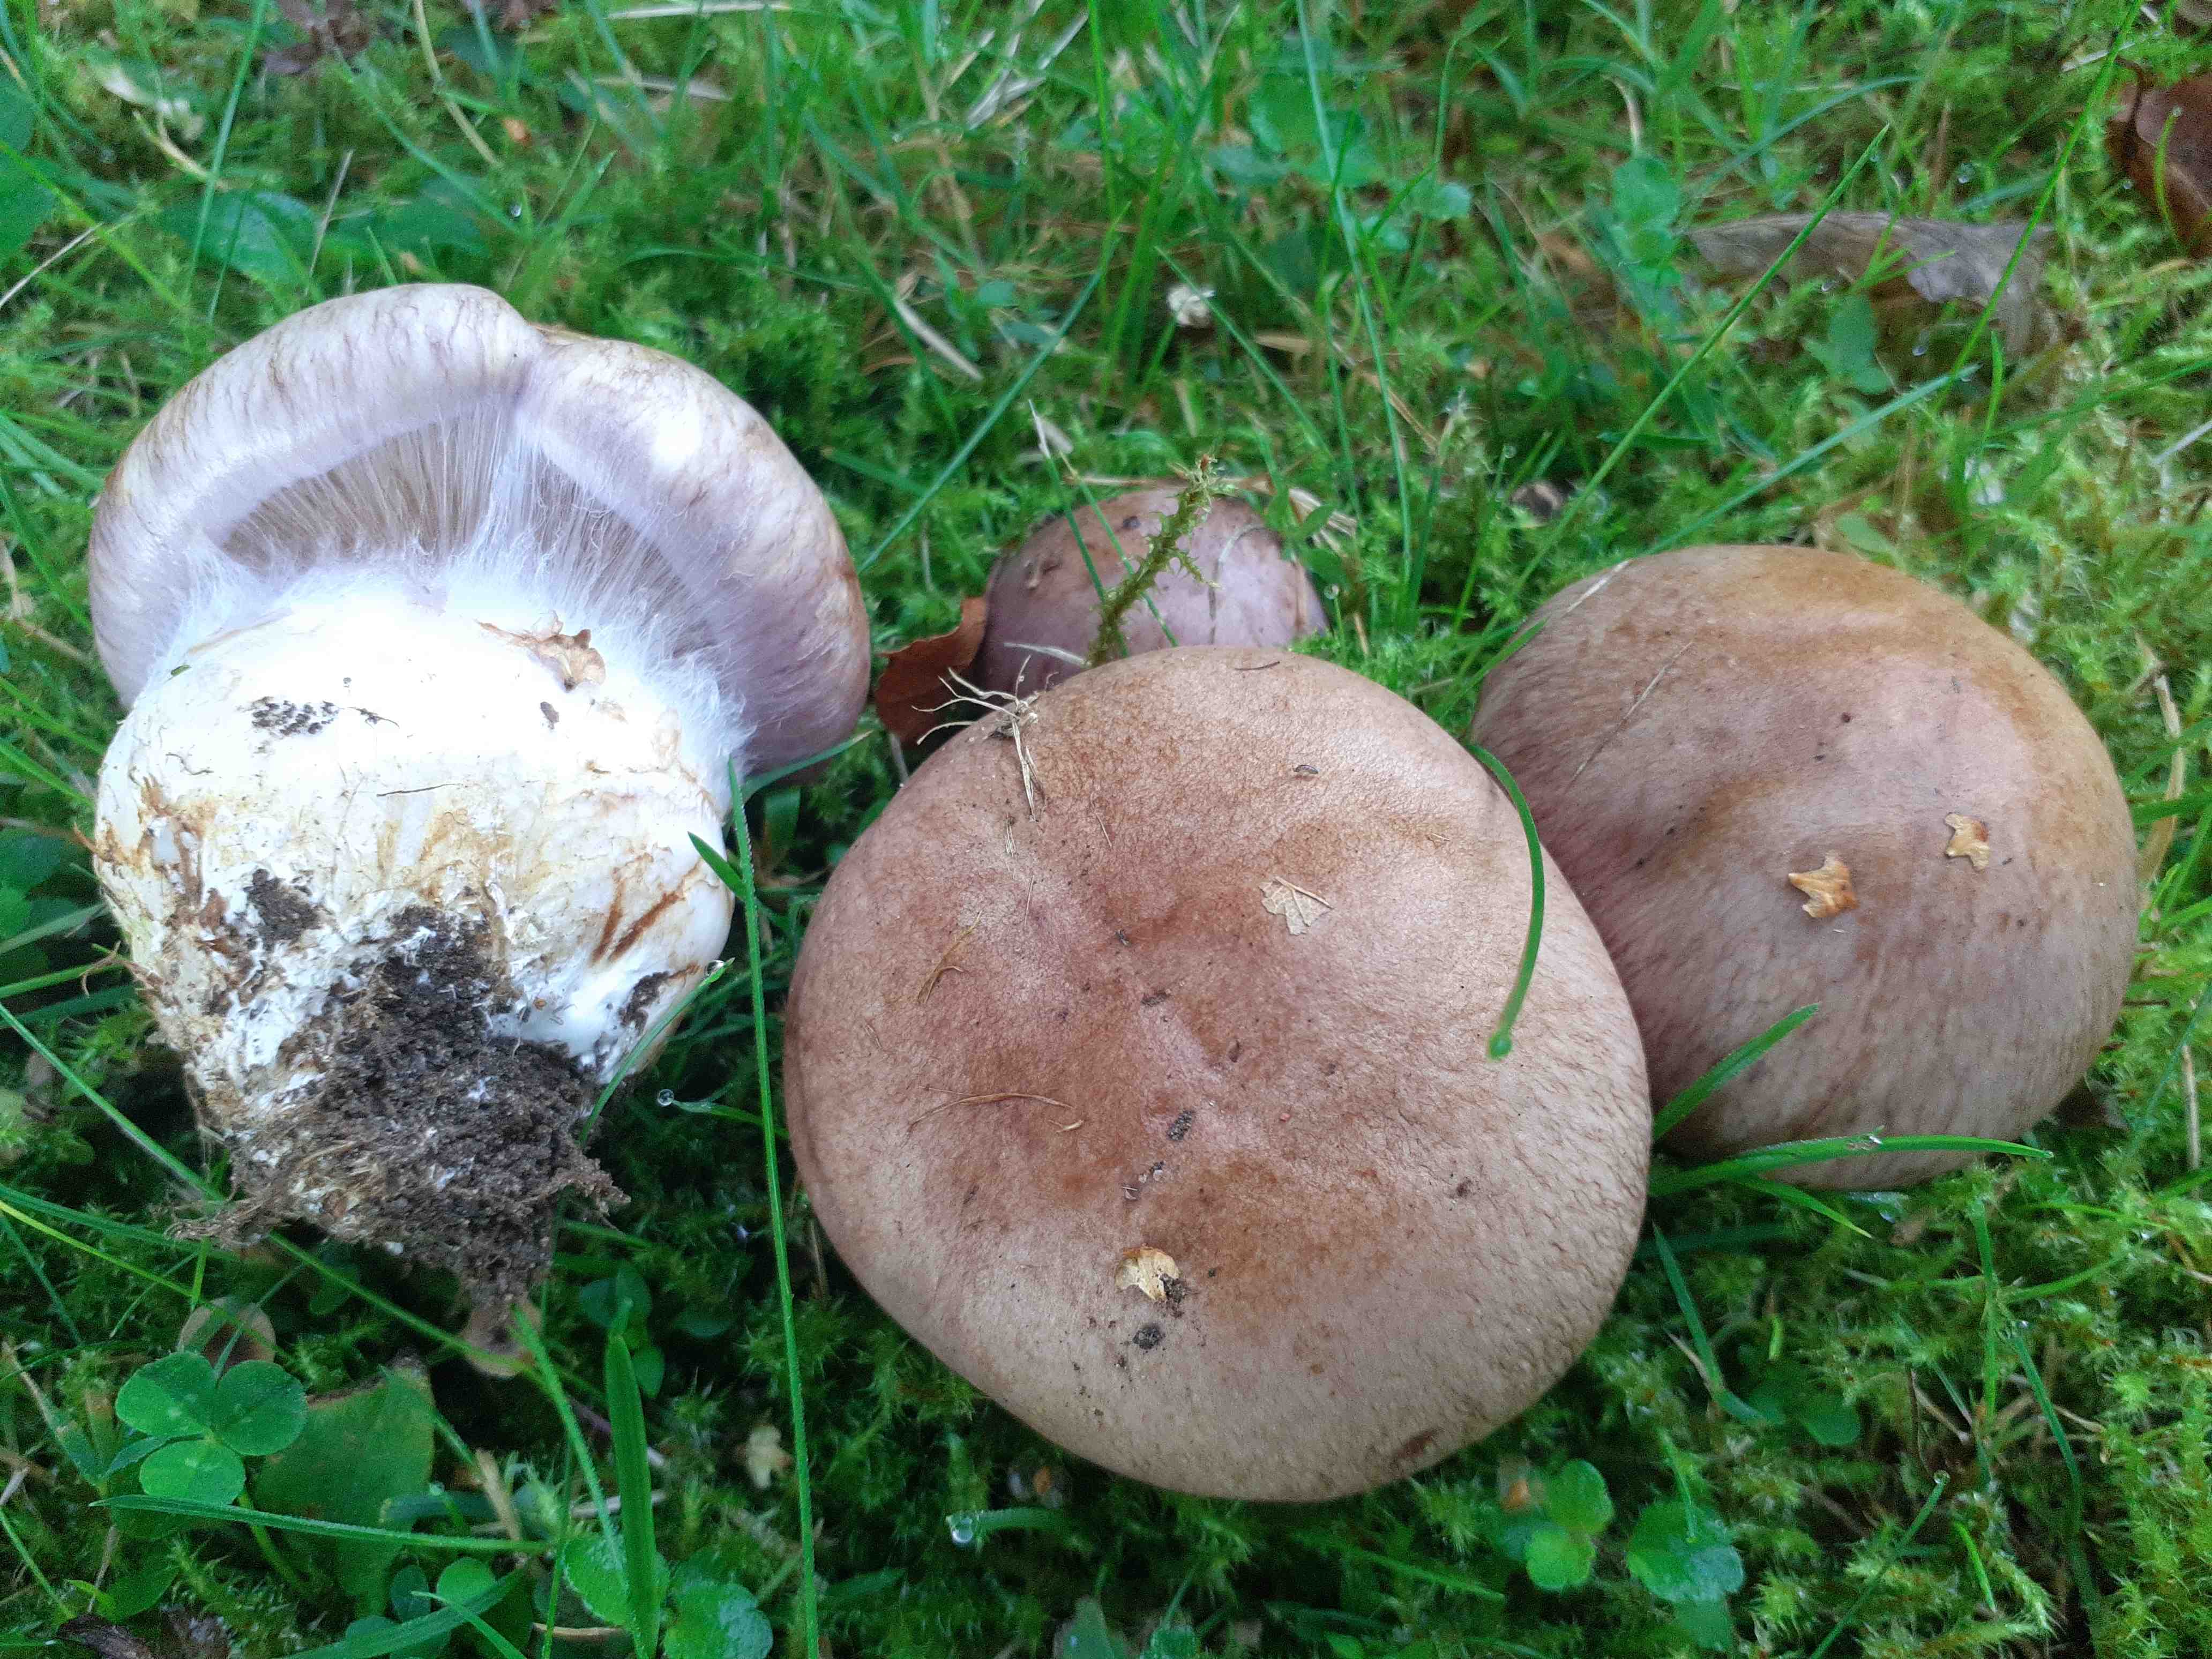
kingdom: Fungi
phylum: Basidiomycota
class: Agaricomycetes
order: Agaricales
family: Cortinariaceae
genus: Phlegmacium
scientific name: Phlegmacium balteatocumatile
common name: violettrådet slørhat
